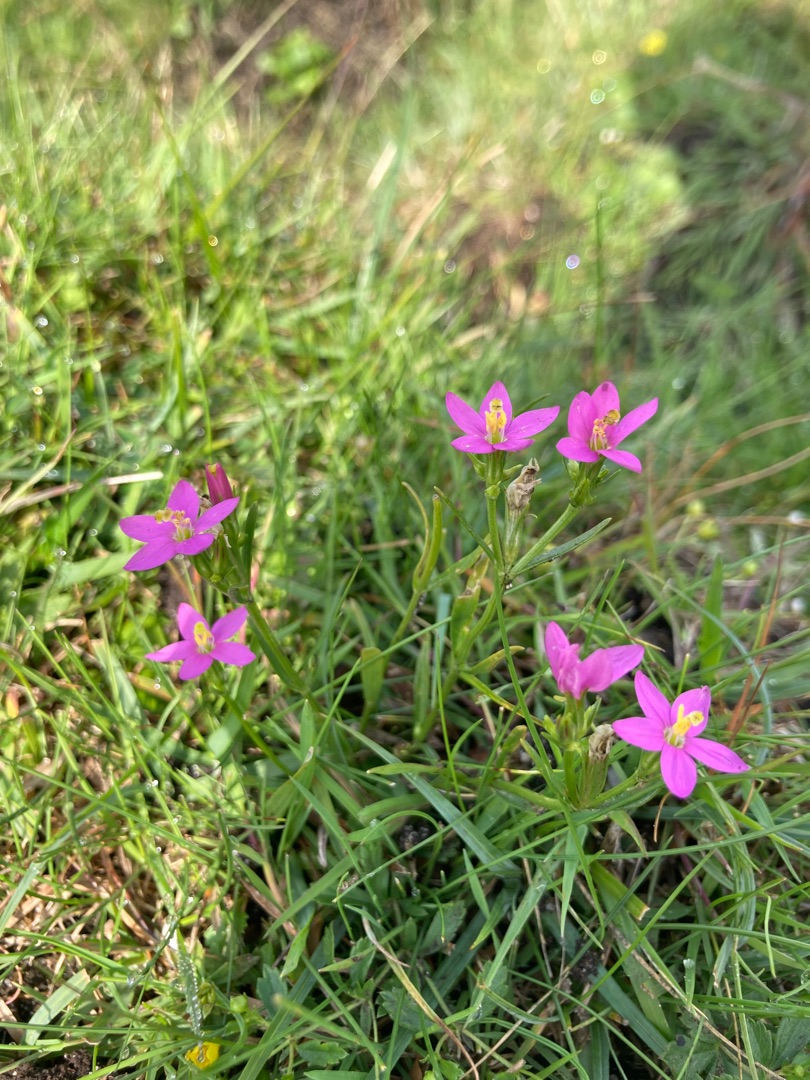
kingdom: Plantae
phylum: Tracheophyta
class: Magnoliopsida
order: Gentianales
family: Gentianaceae
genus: Centaurium
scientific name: Centaurium littorale
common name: Strand-tusindgylden
